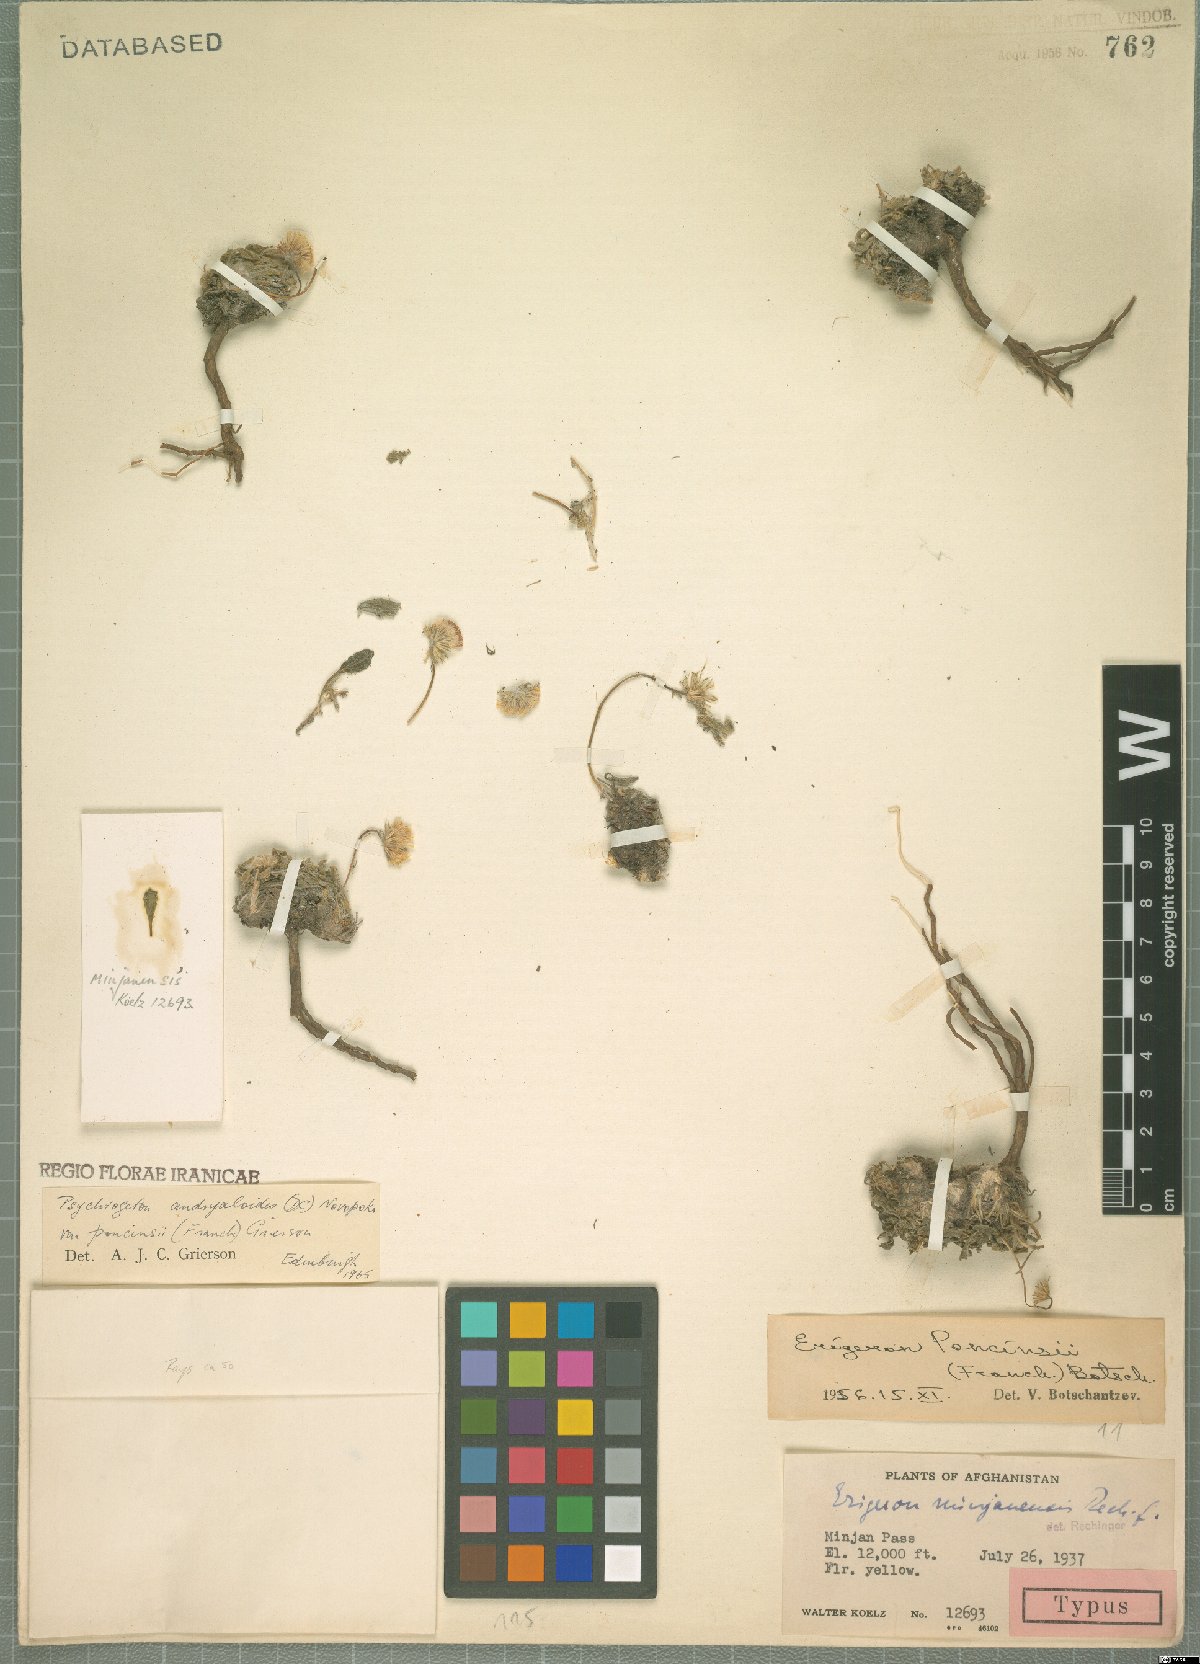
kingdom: Plantae
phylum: Tracheophyta
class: Magnoliopsida
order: Asterales
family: Asteraceae
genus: Psychrogeton
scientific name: Psychrogeton poncinsii
